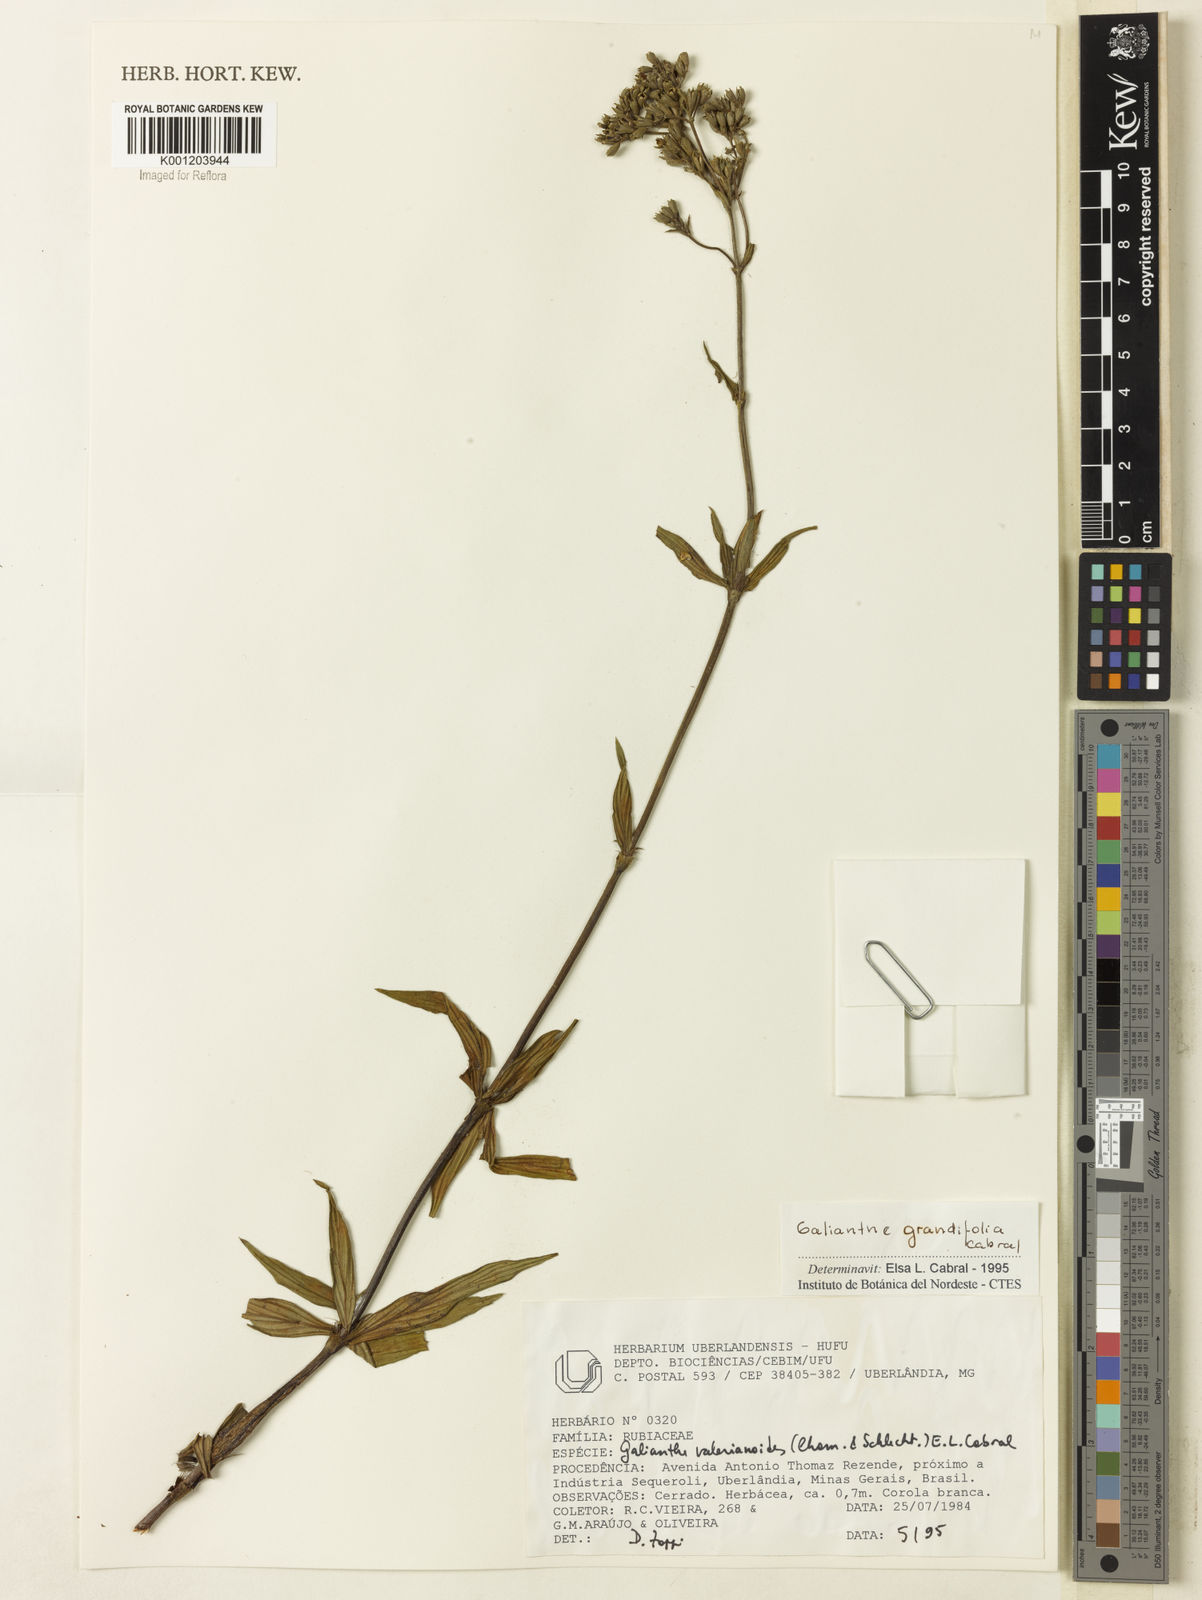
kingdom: Plantae
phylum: Tracheophyta
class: Magnoliopsida
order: Gentianales
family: Rubiaceae
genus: Galianthe
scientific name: Galianthe grandifolia
